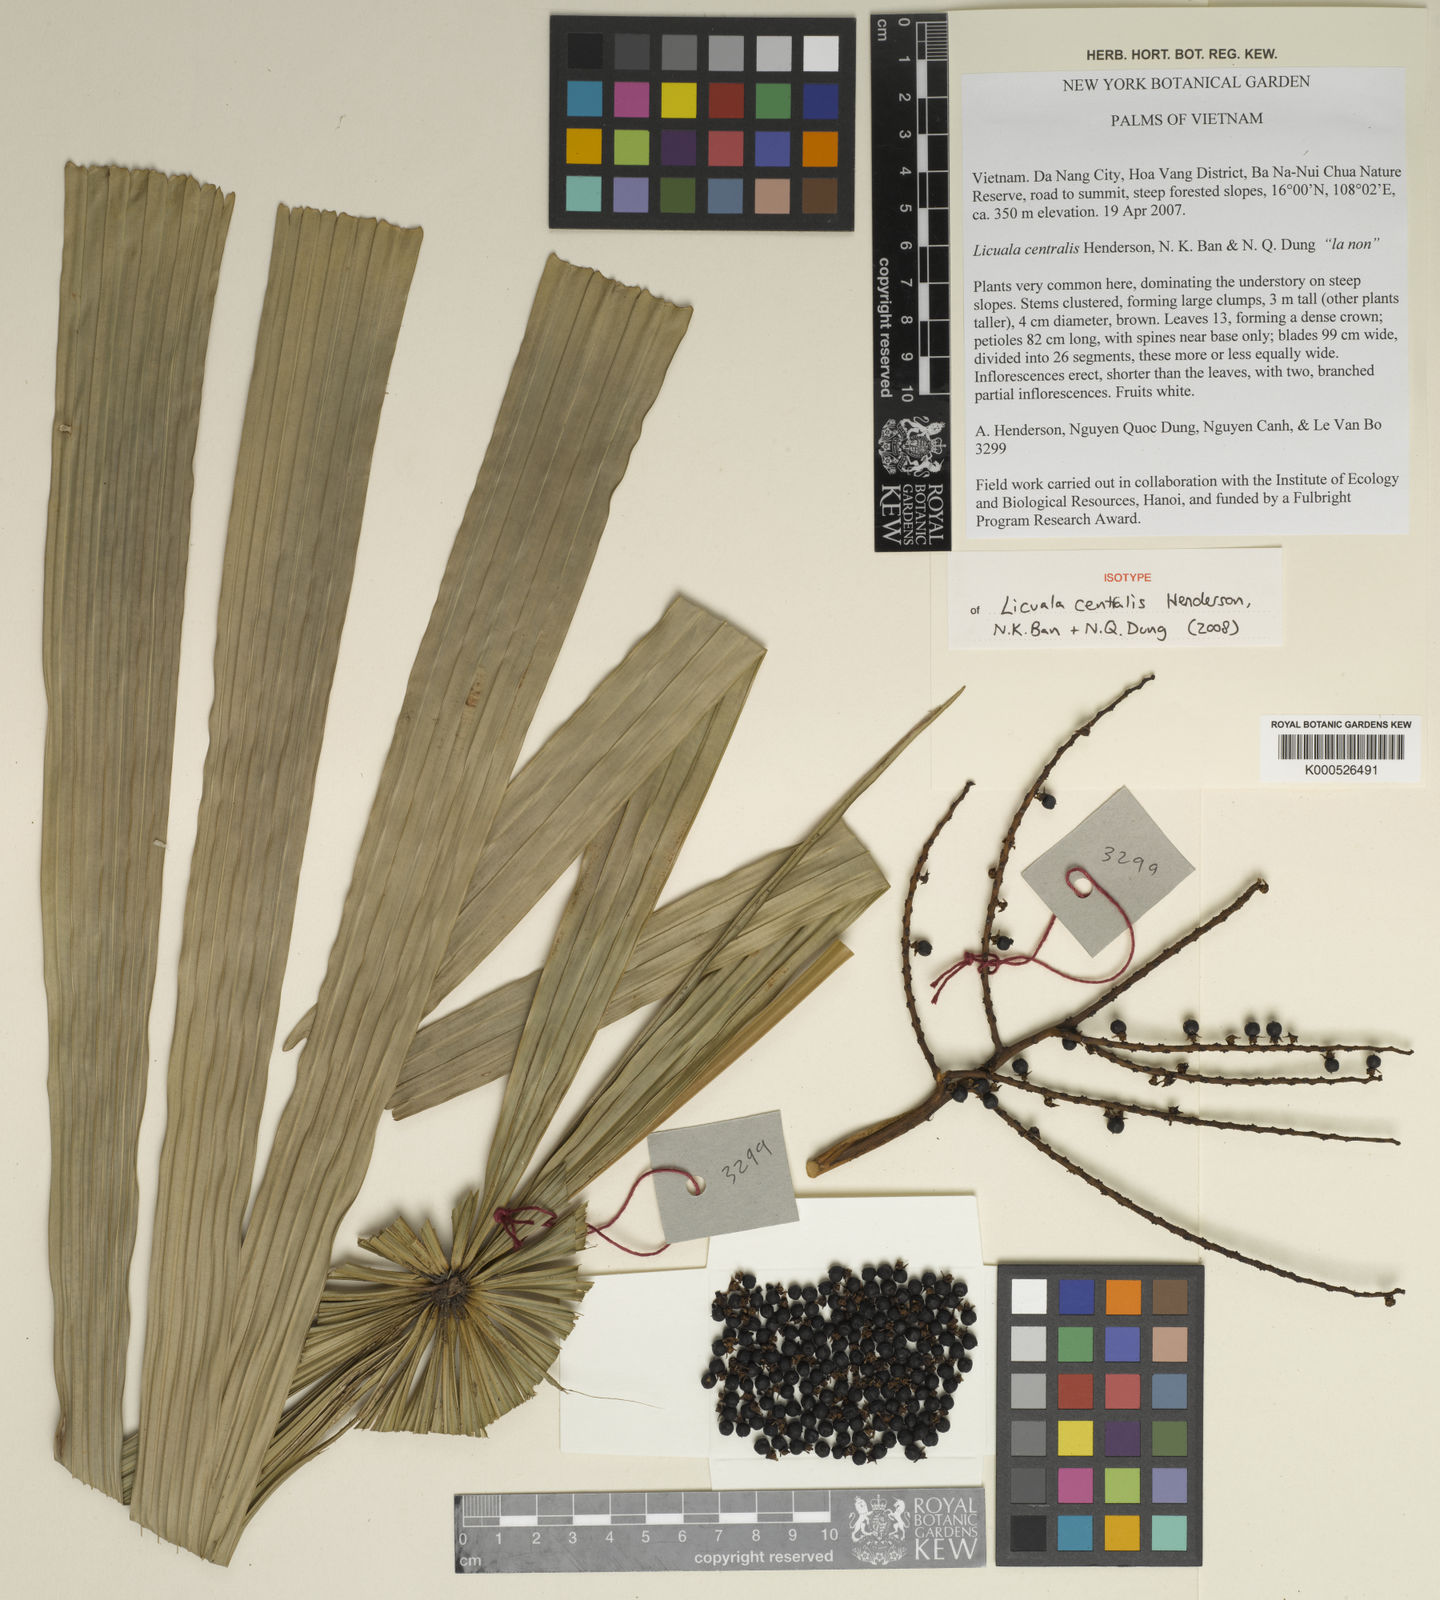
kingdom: Plantae
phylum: Tracheophyta
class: Liliopsida
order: Arecales
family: Arecaceae
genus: Lanonia
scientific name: Lanonia
